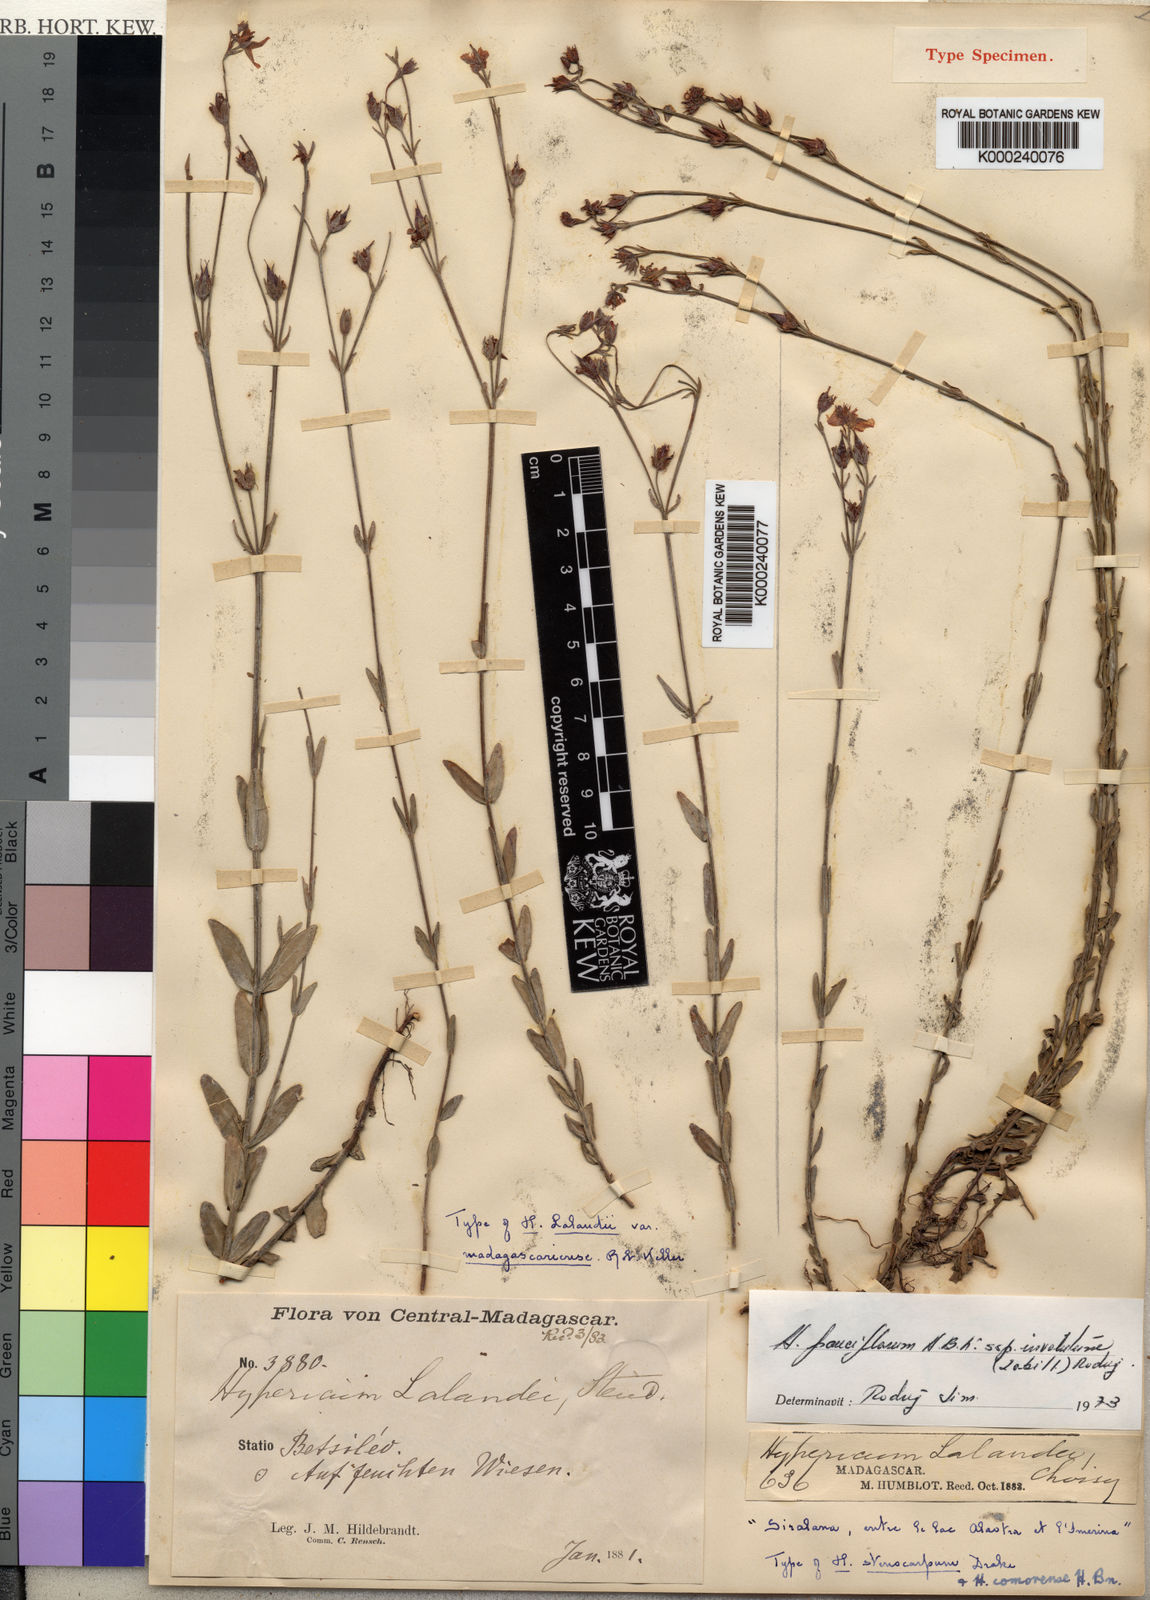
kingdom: Plantae
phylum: Tracheophyta
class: Magnoliopsida
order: Malpighiales
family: Hypericaceae
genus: Hypericum
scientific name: Hypericum
